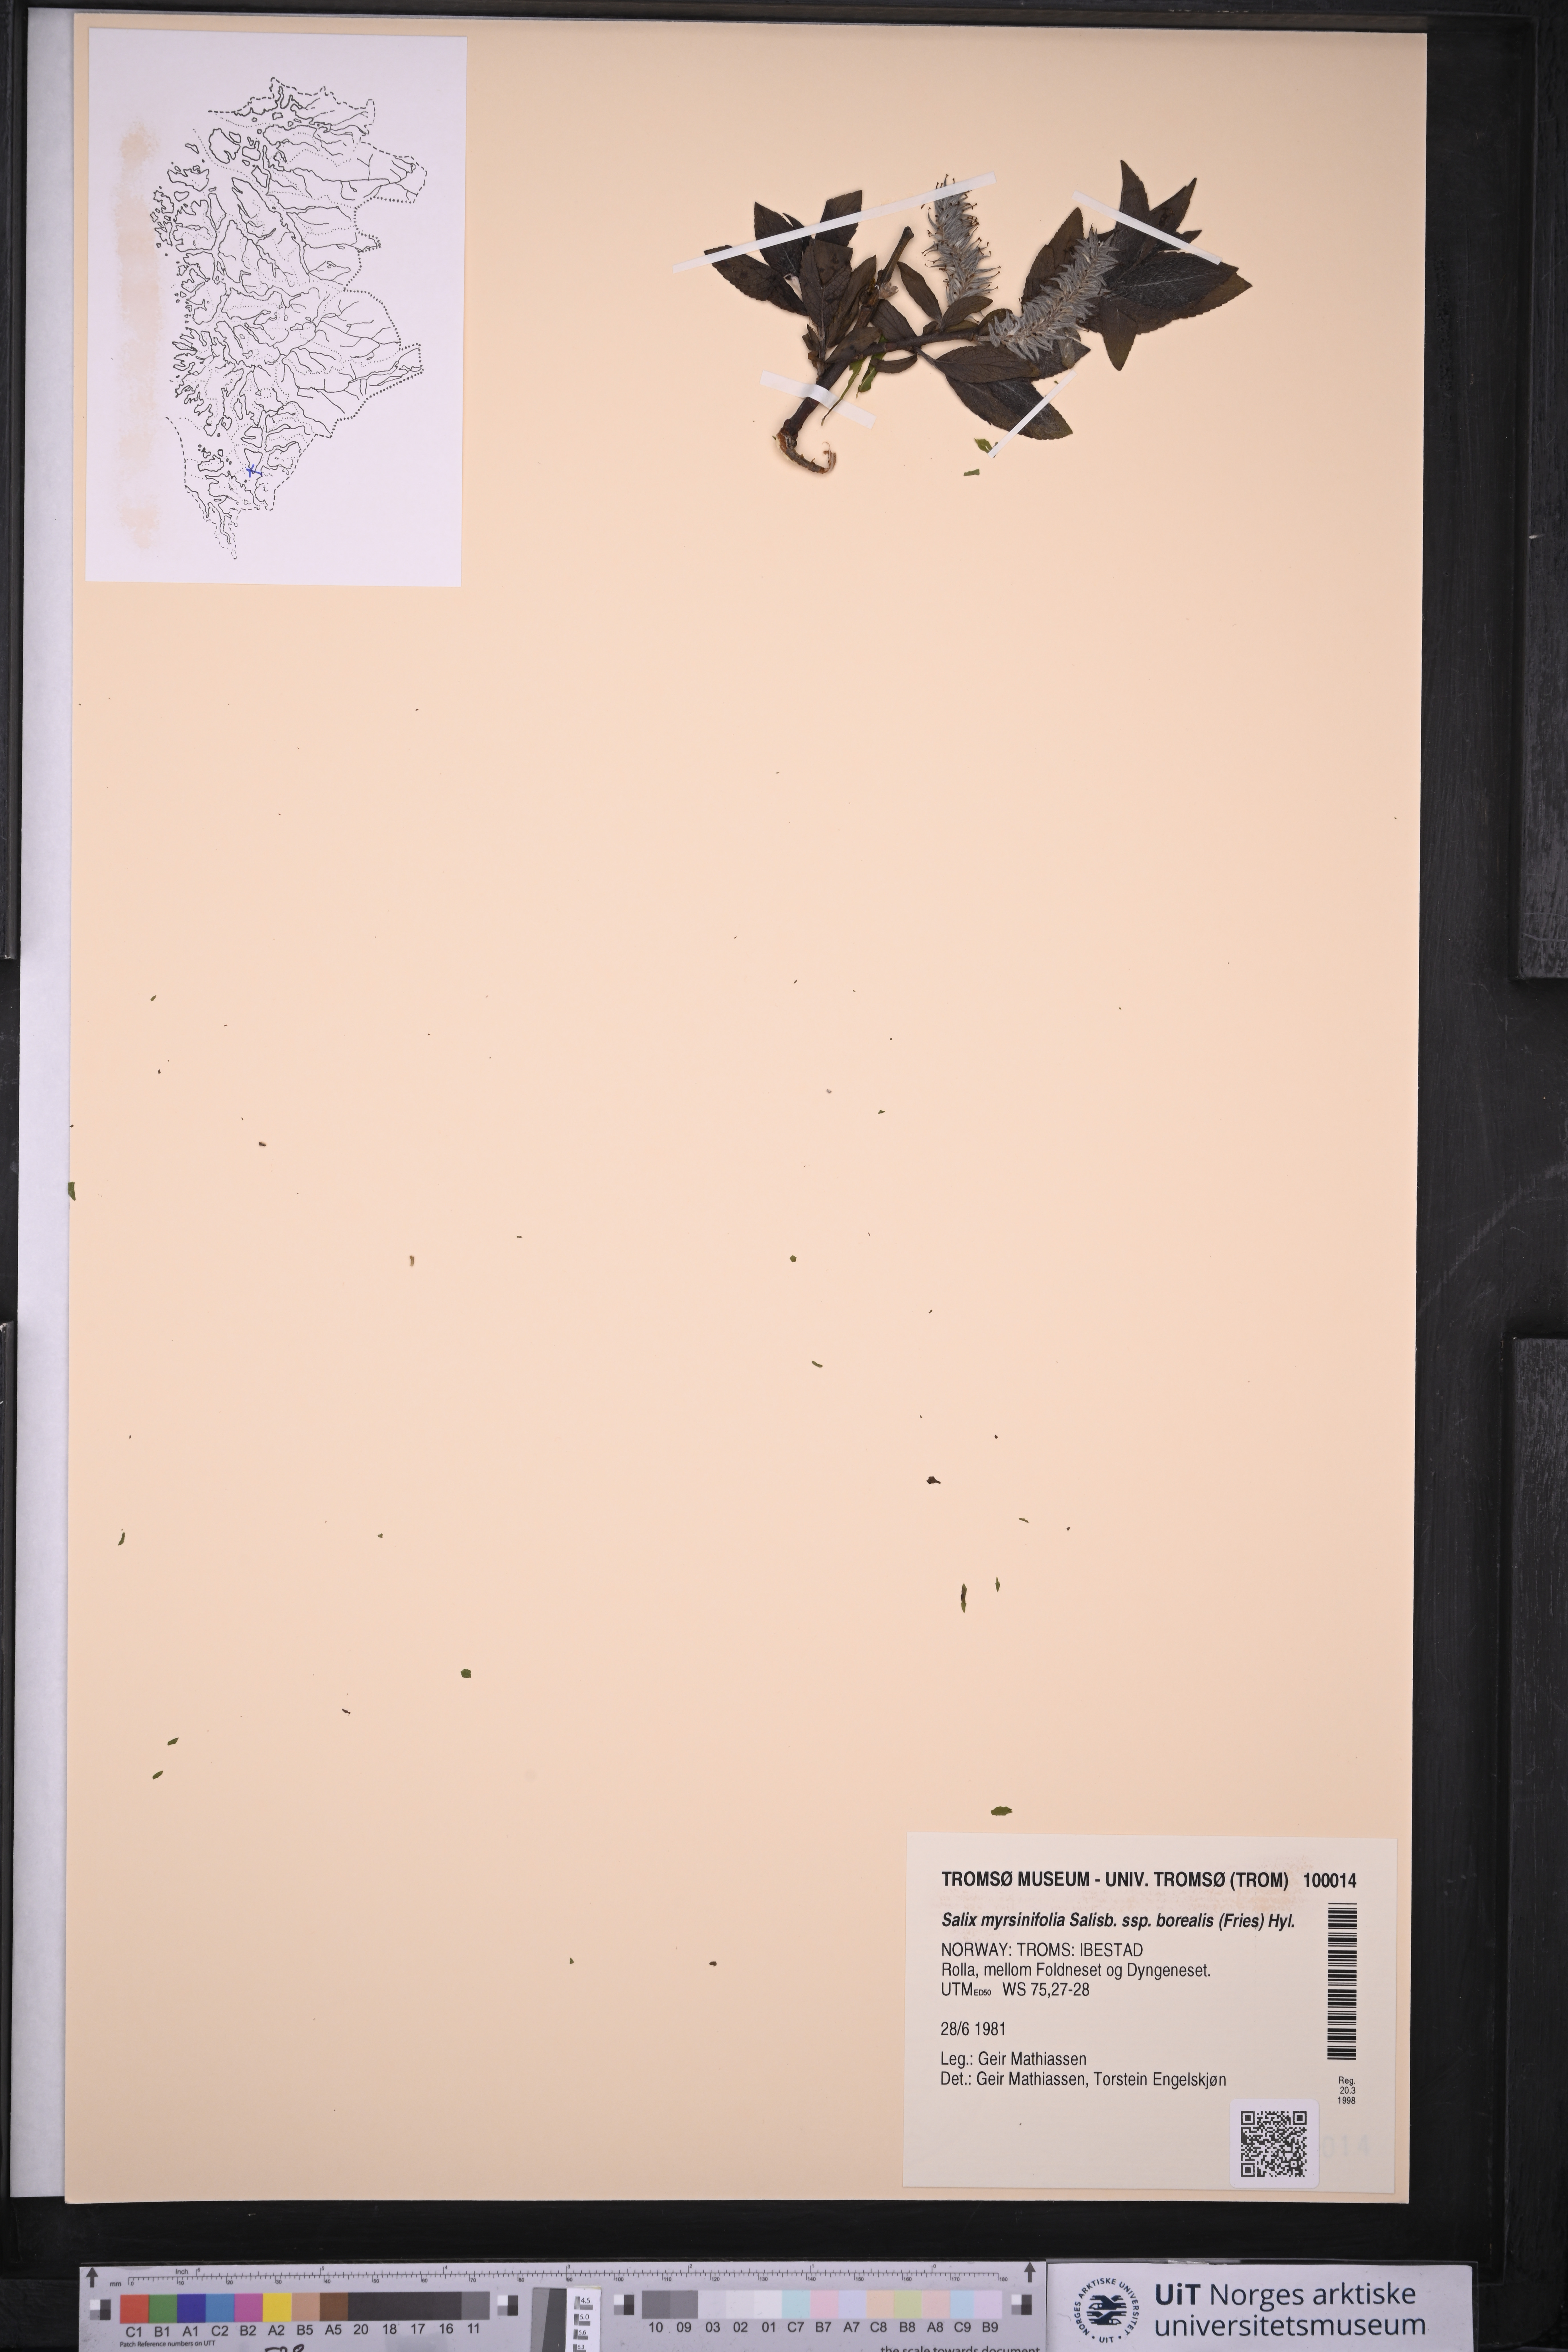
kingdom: Plantae
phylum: Tracheophyta
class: Magnoliopsida
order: Malpighiales
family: Salicaceae
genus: Salix
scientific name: Salix myrsinifolia
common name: Dark-leaved willow
